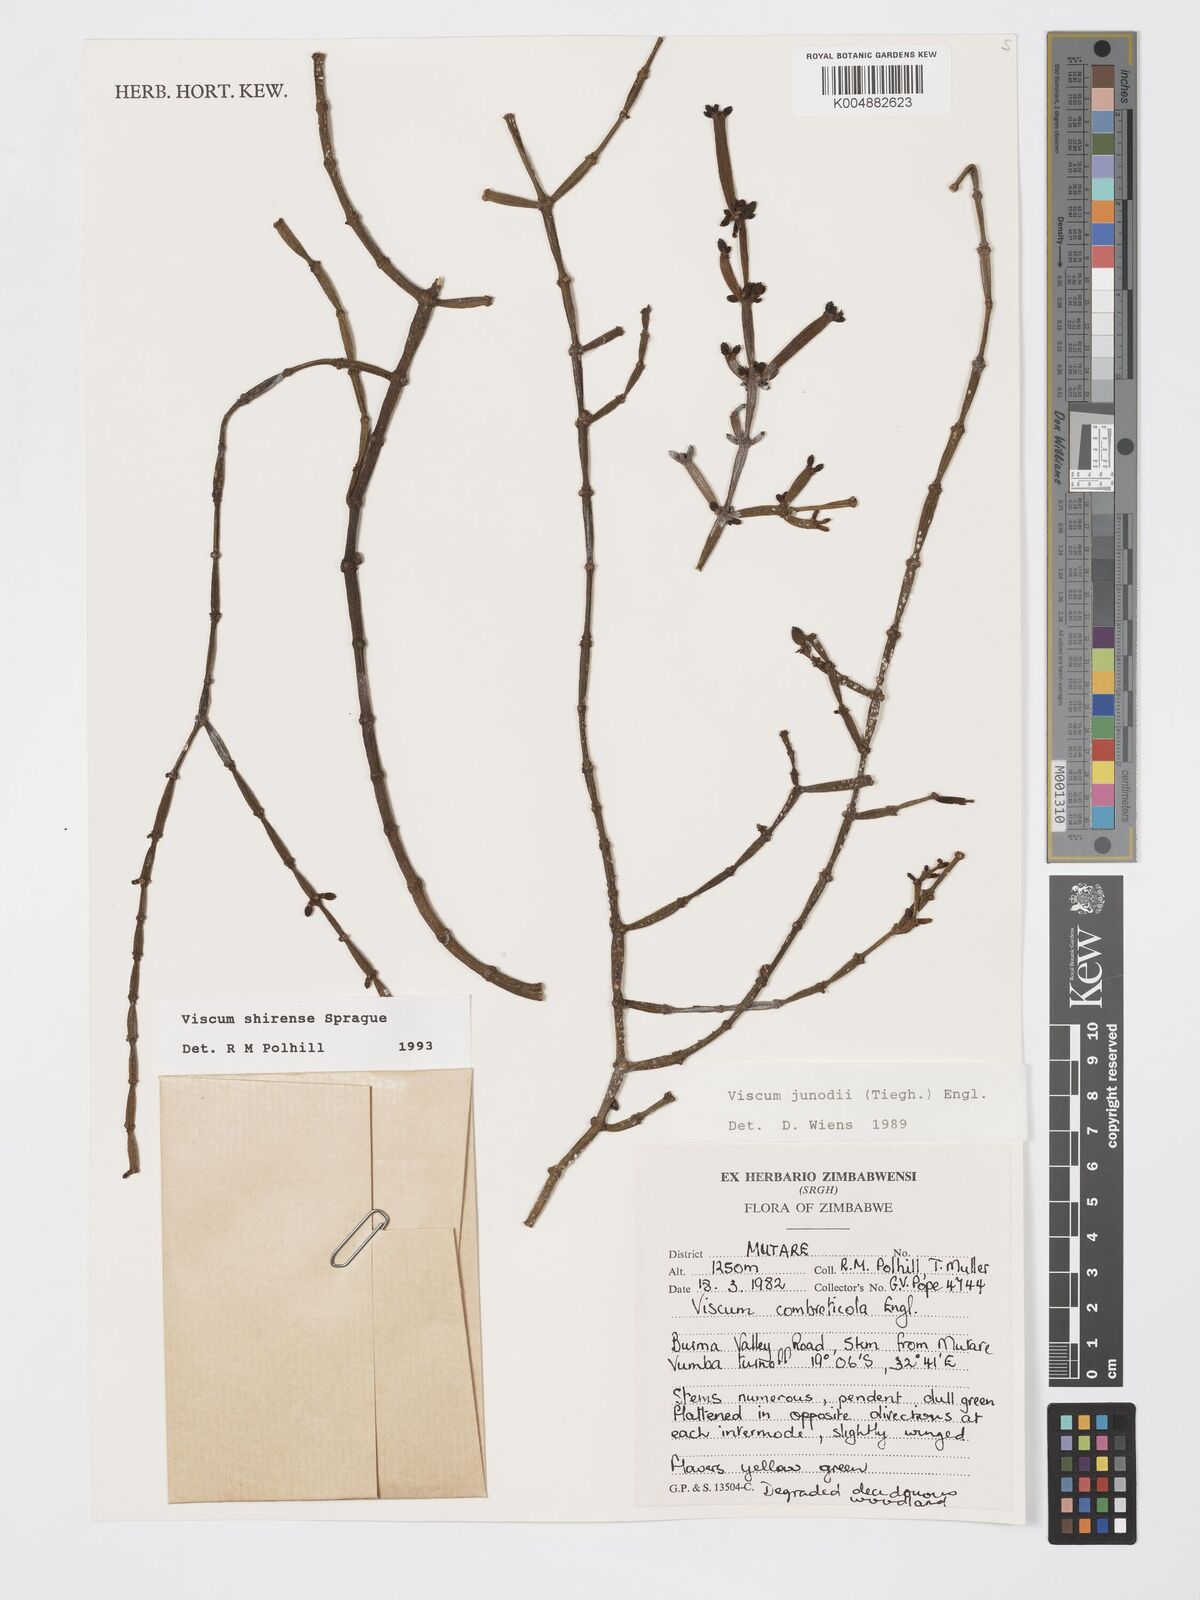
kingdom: Plantae
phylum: Tracheophyta
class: Magnoliopsida
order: Santalales
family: Viscaceae
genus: Viscum
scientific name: Viscum junodii
